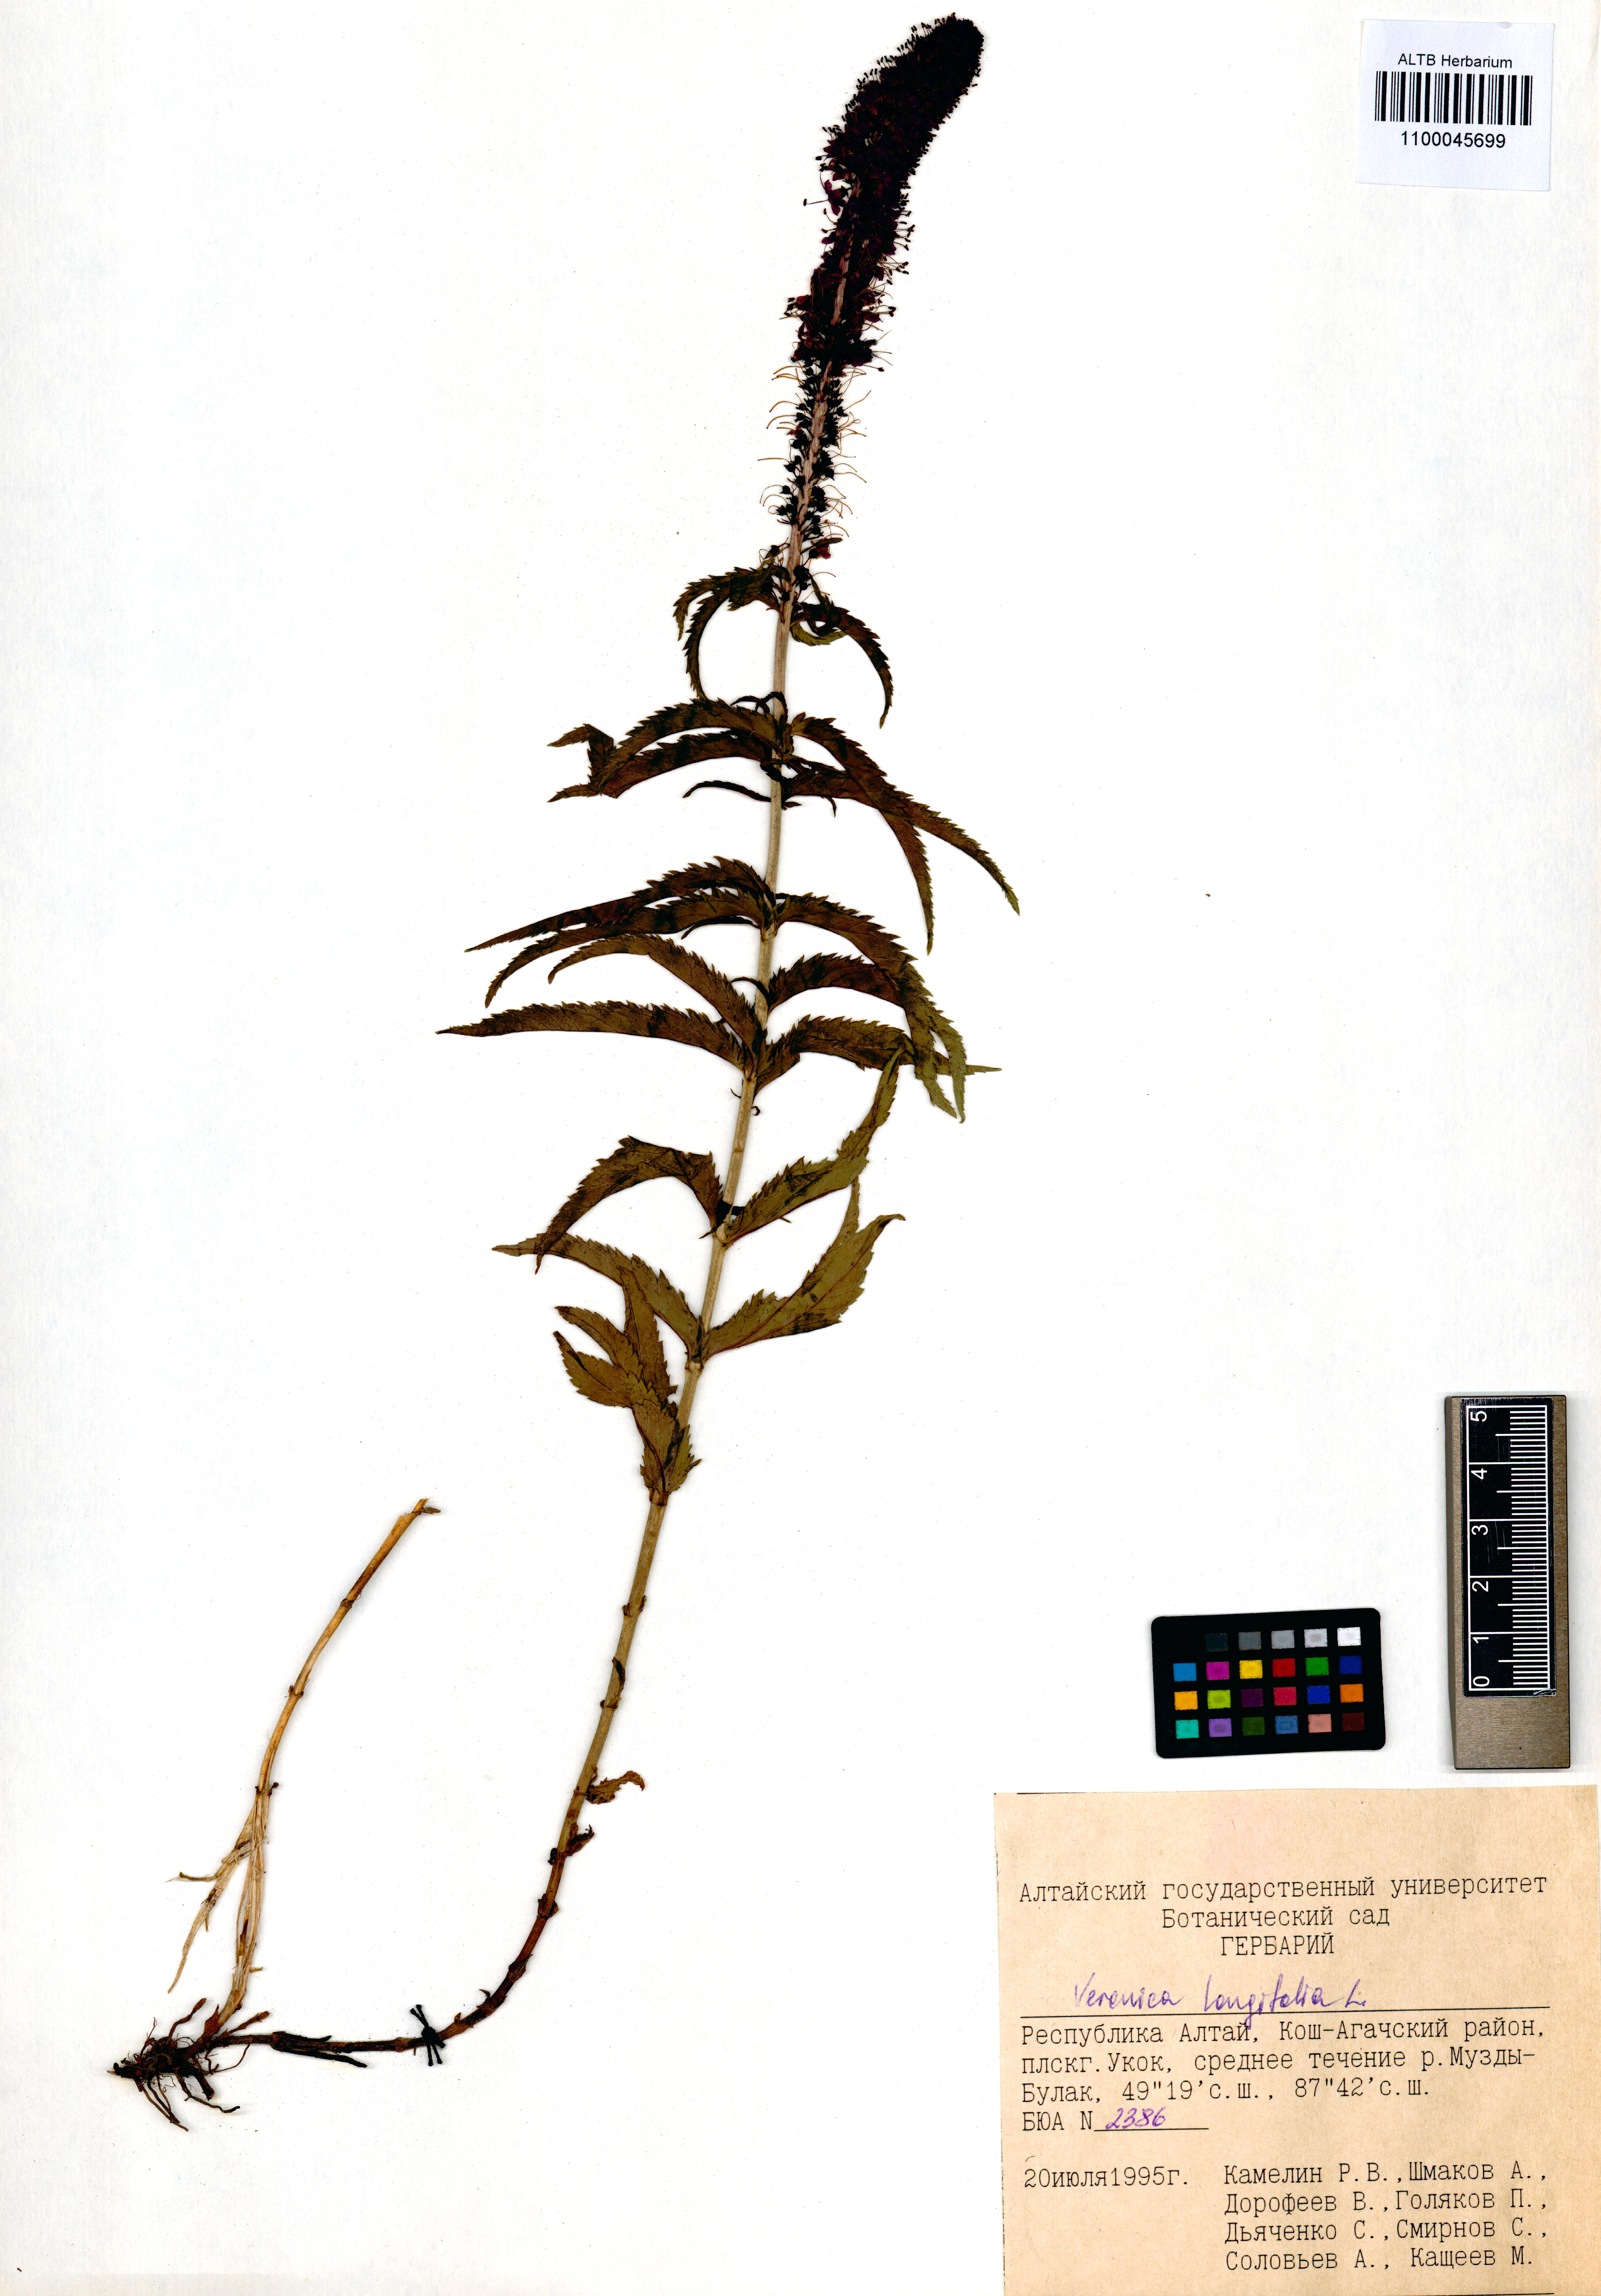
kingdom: Plantae
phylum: Tracheophyta
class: Magnoliopsida
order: Lamiales
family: Plantaginaceae
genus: Veronica
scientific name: Veronica longifolia
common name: Garden speedwell
